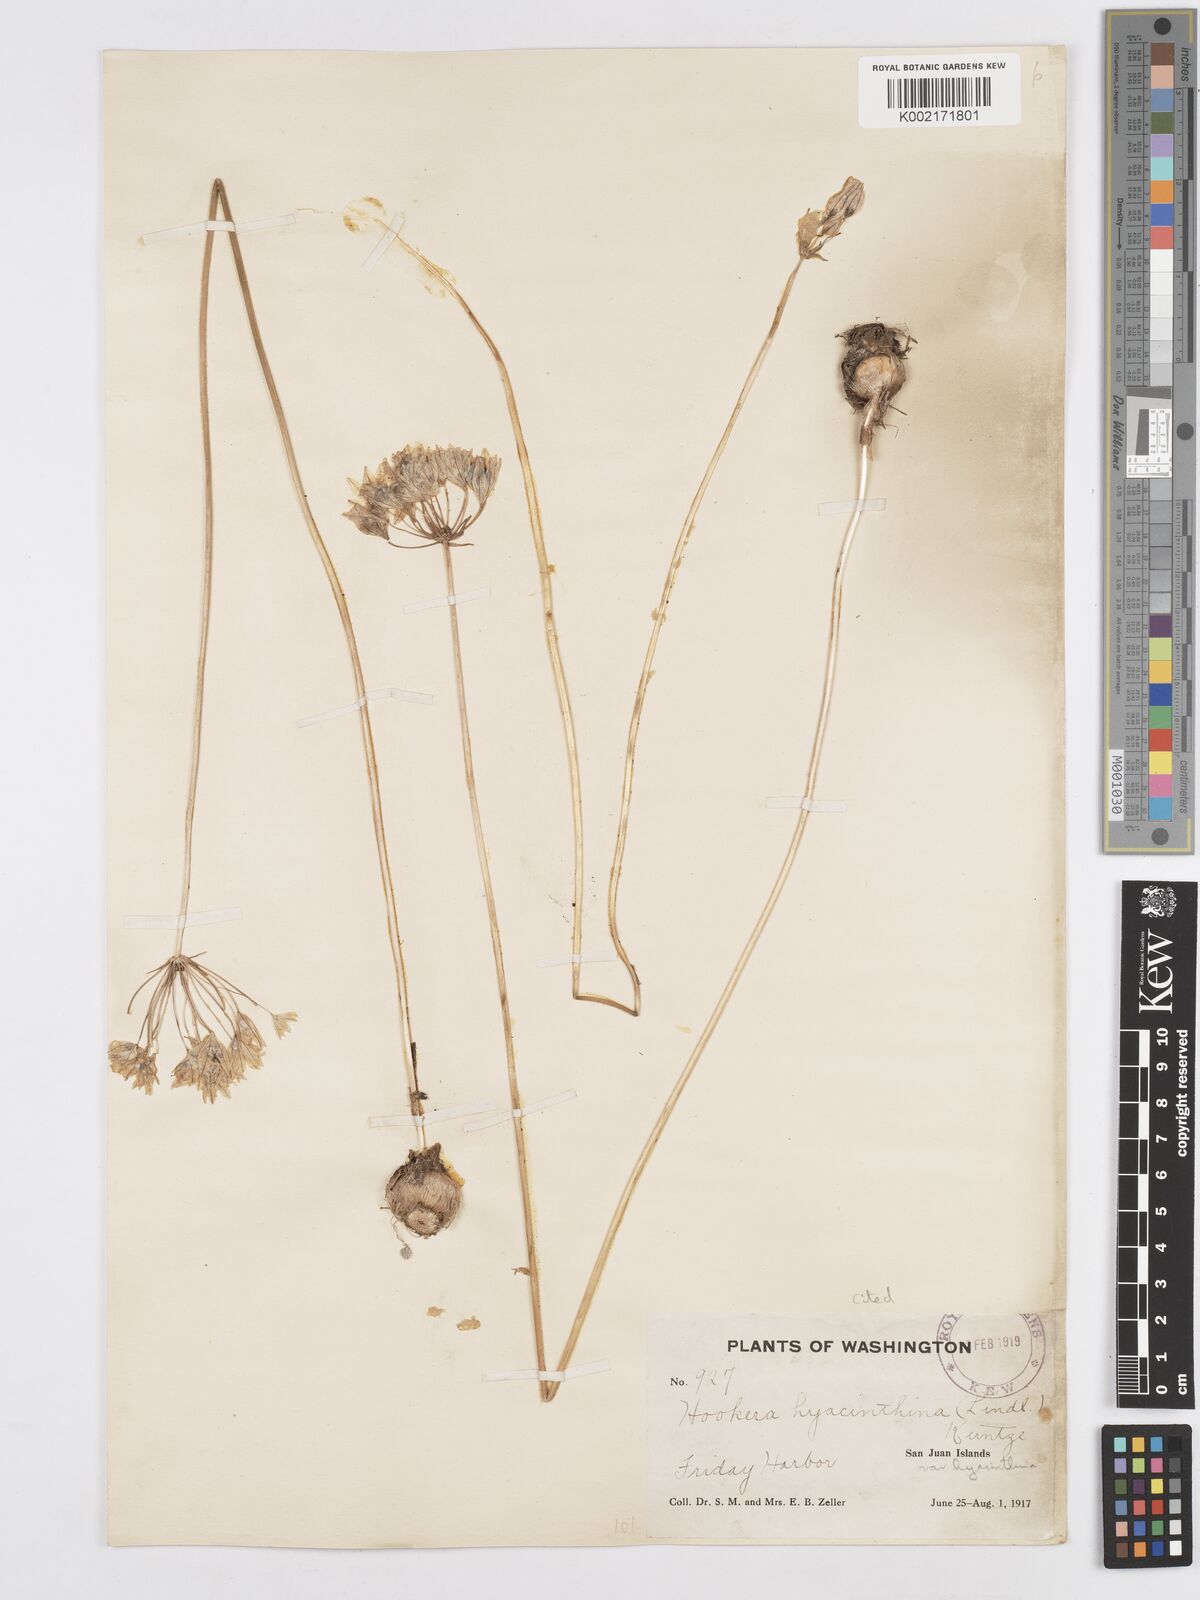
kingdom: Plantae
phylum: Tracheophyta
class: Liliopsida
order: Asparagales
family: Asparagaceae
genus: Triteleia
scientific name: Triteleia hyacinthina
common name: White brodiaea
